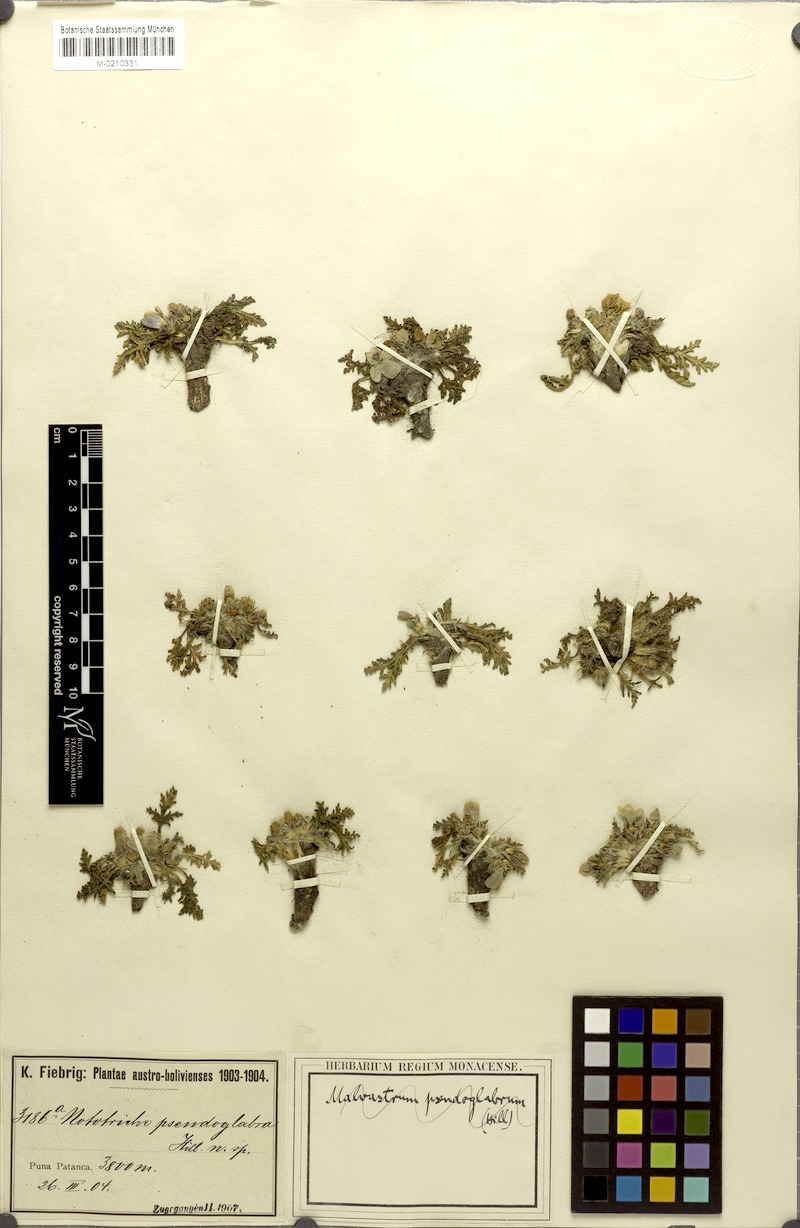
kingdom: Plantae
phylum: Tracheophyta
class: Magnoliopsida
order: Malvales
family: Malvaceae
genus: Nototriche
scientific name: Nototriche anthemidifolia
